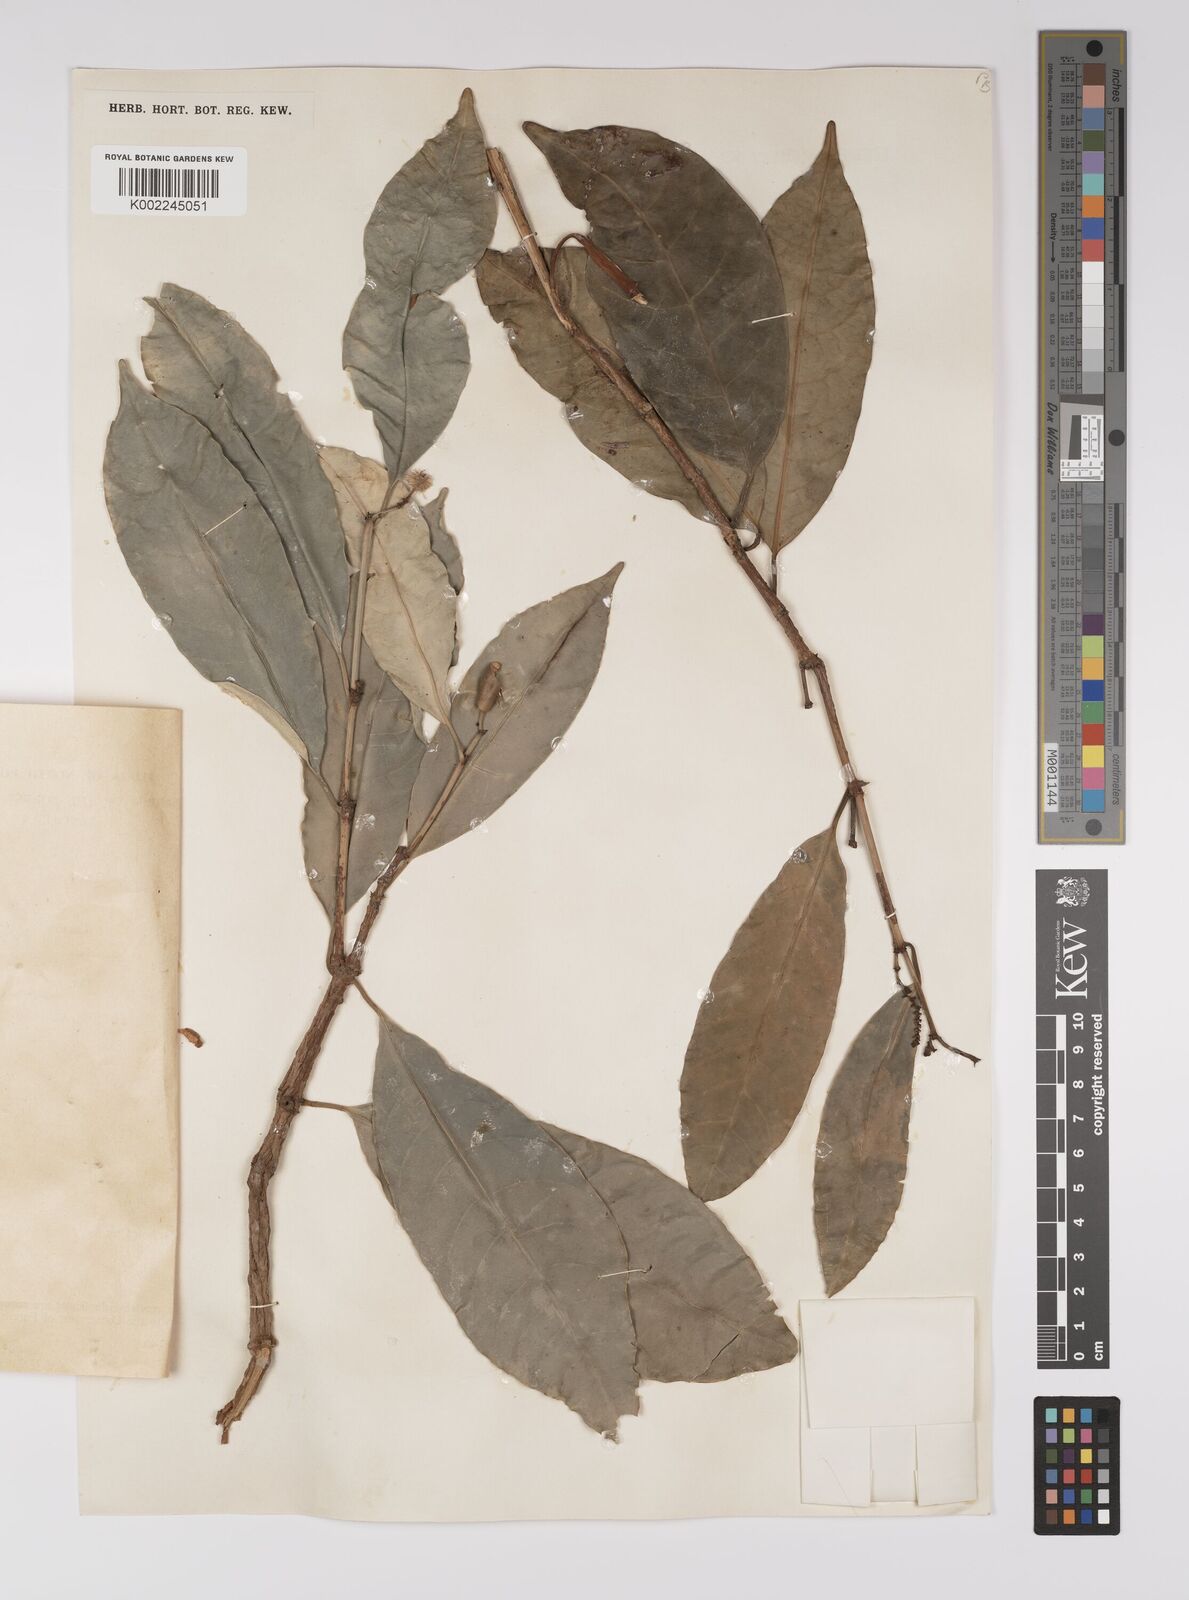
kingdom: Plantae
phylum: Tracheophyta
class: Magnoliopsida
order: Malpighiales
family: Euphorbiaceae
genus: Excoecaria
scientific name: Excoecaria borneensis
